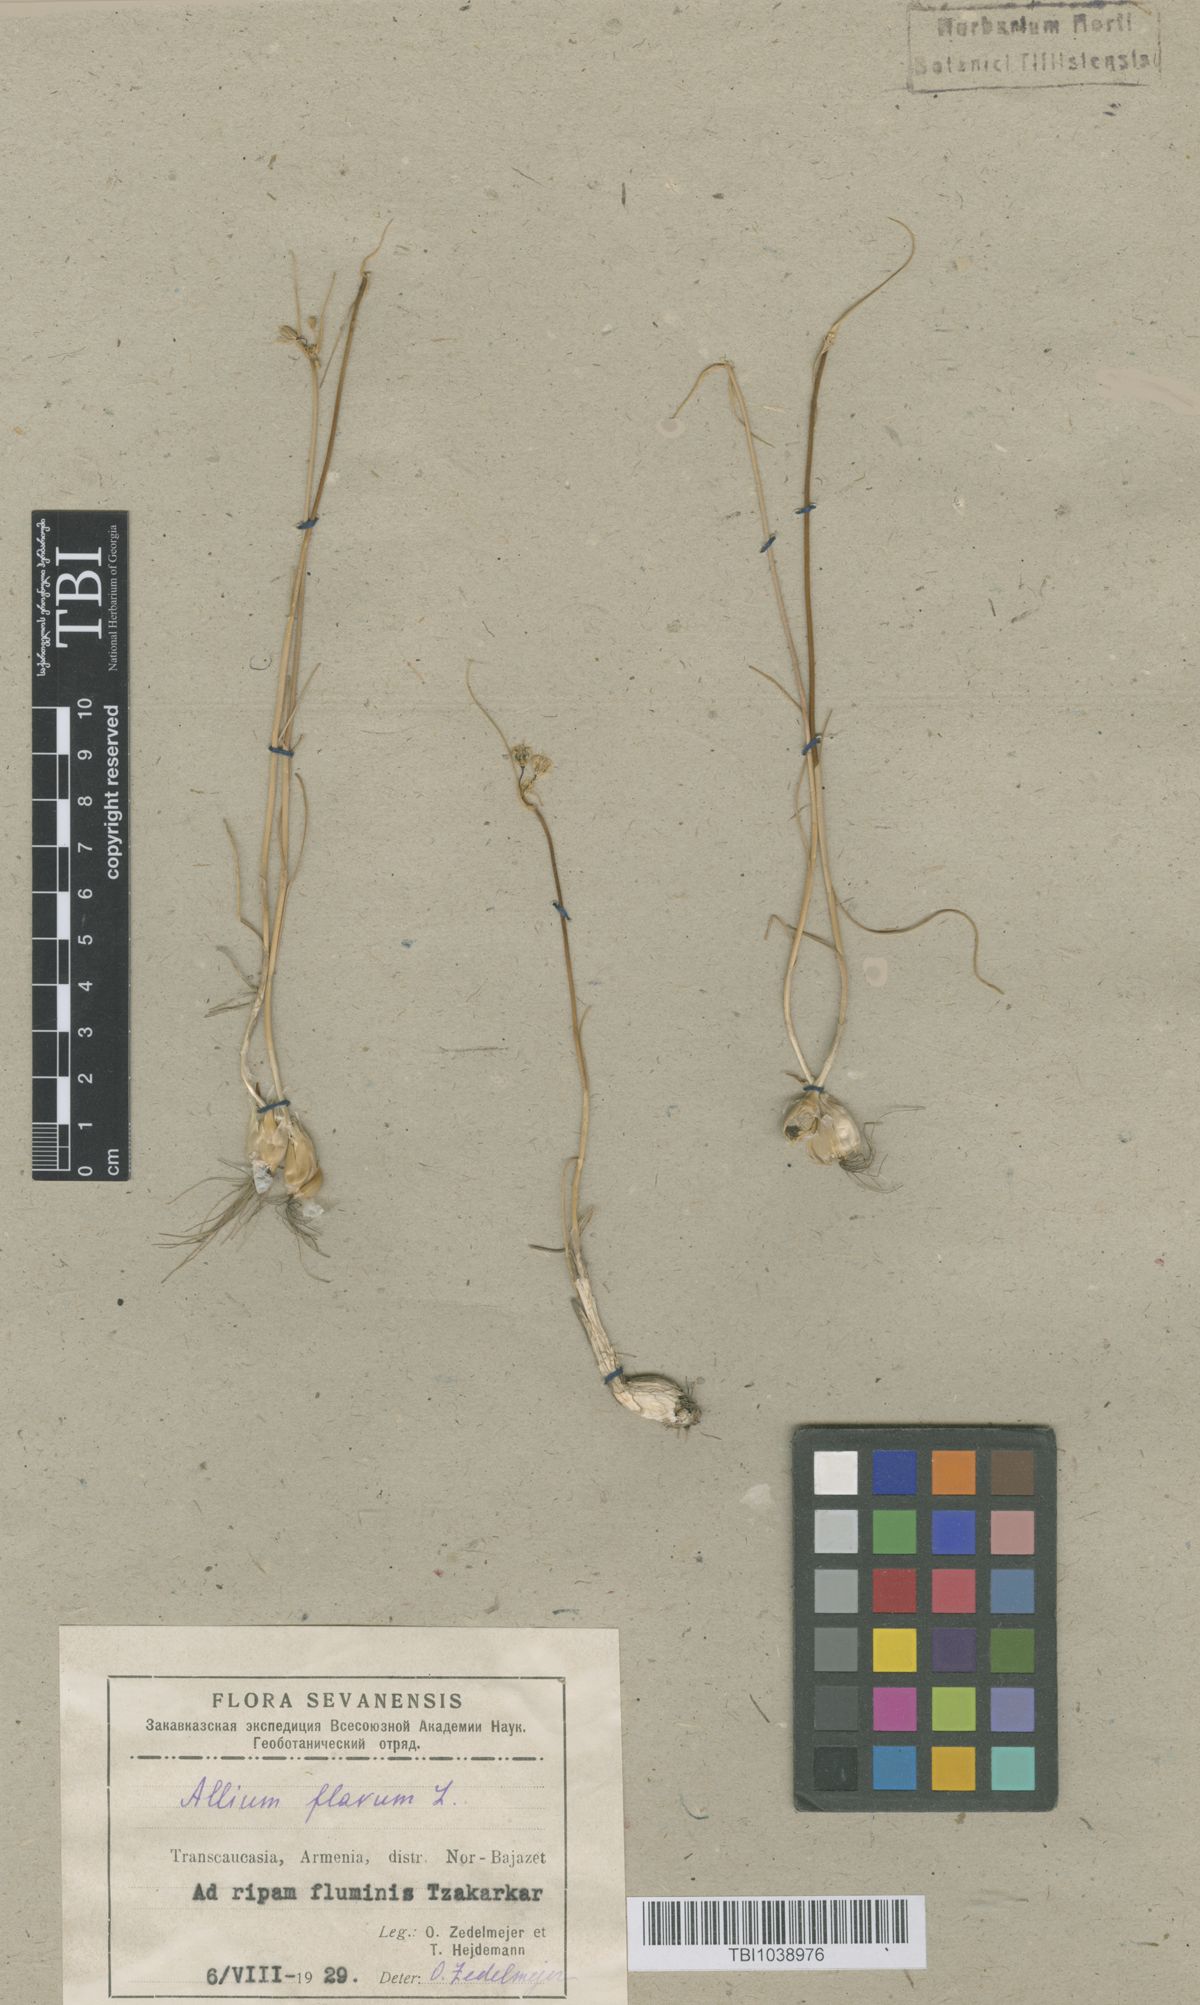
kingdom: Plantae
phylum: Tracheophyta
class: Liliopsida
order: Asparagales
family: Amaryllidaceae
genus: Allium
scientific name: Allium pseudoflavum
